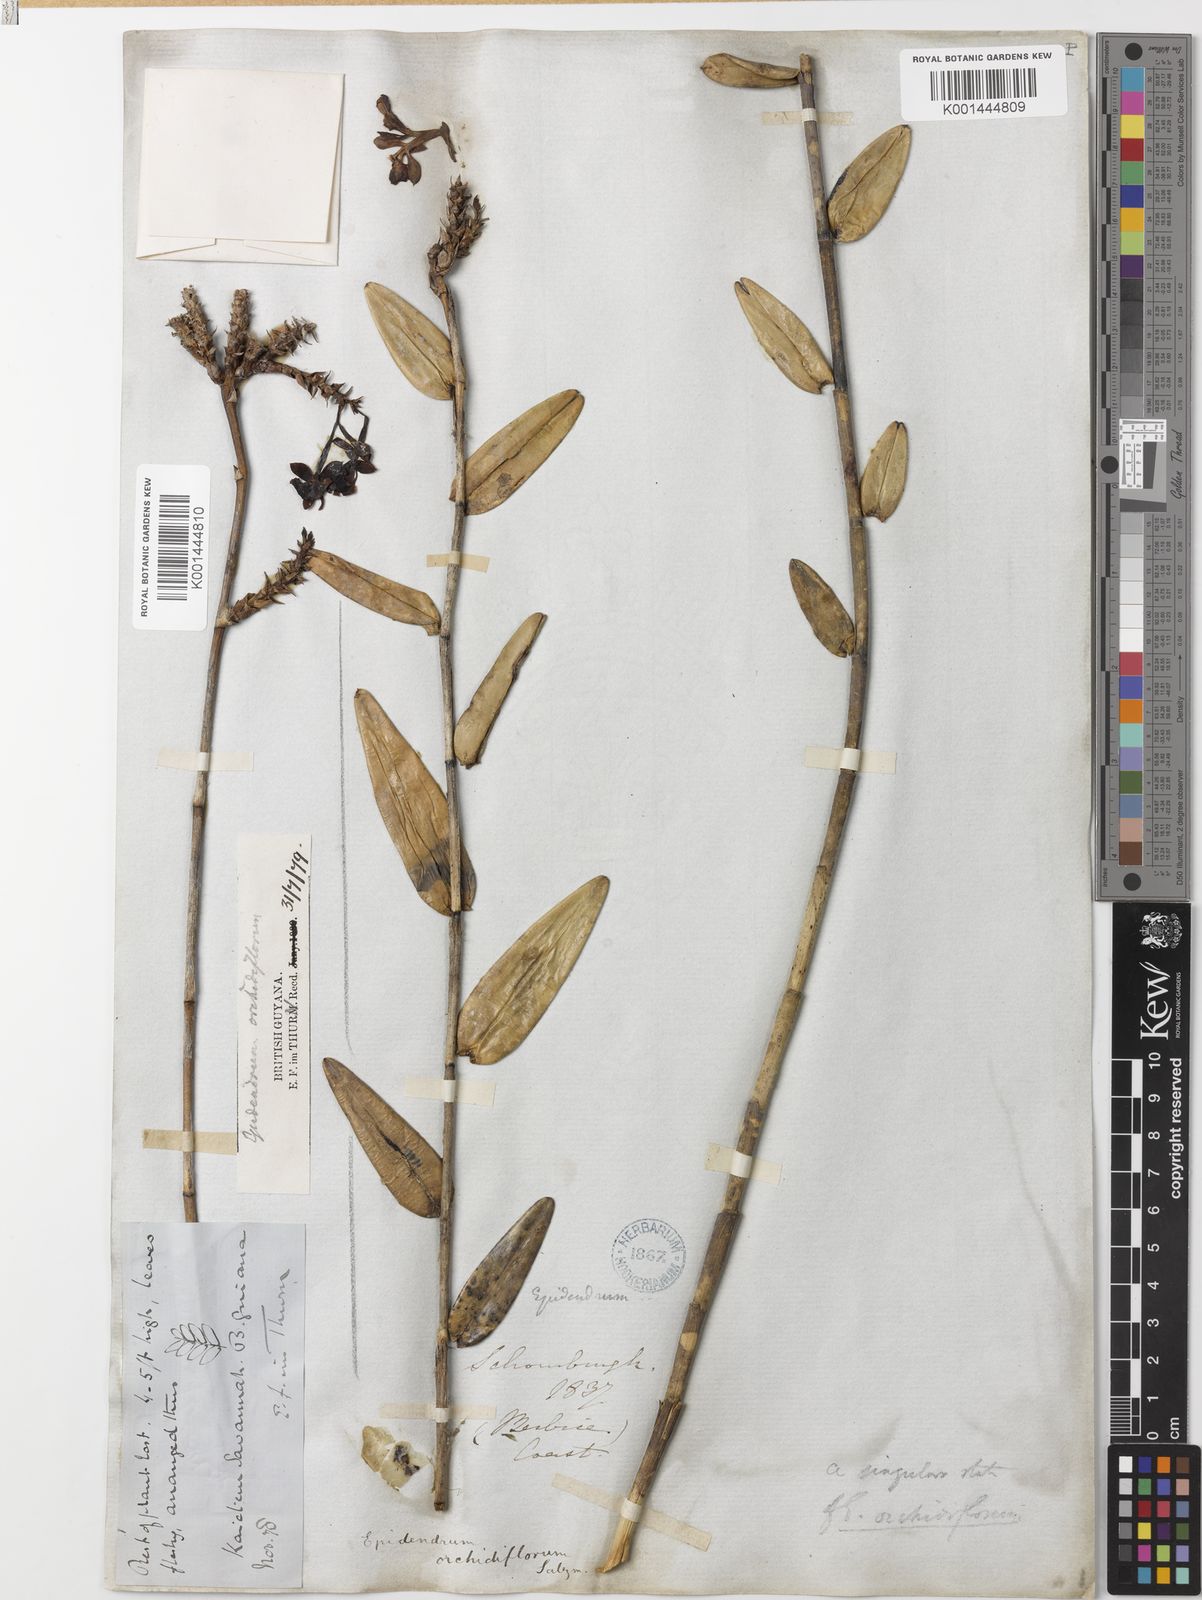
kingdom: Plantae
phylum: Tracheophyta
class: Liliopsida
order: Asparagales
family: Orchidaceae
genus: Epidendrum
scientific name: Epidendrum orchidiflorum
